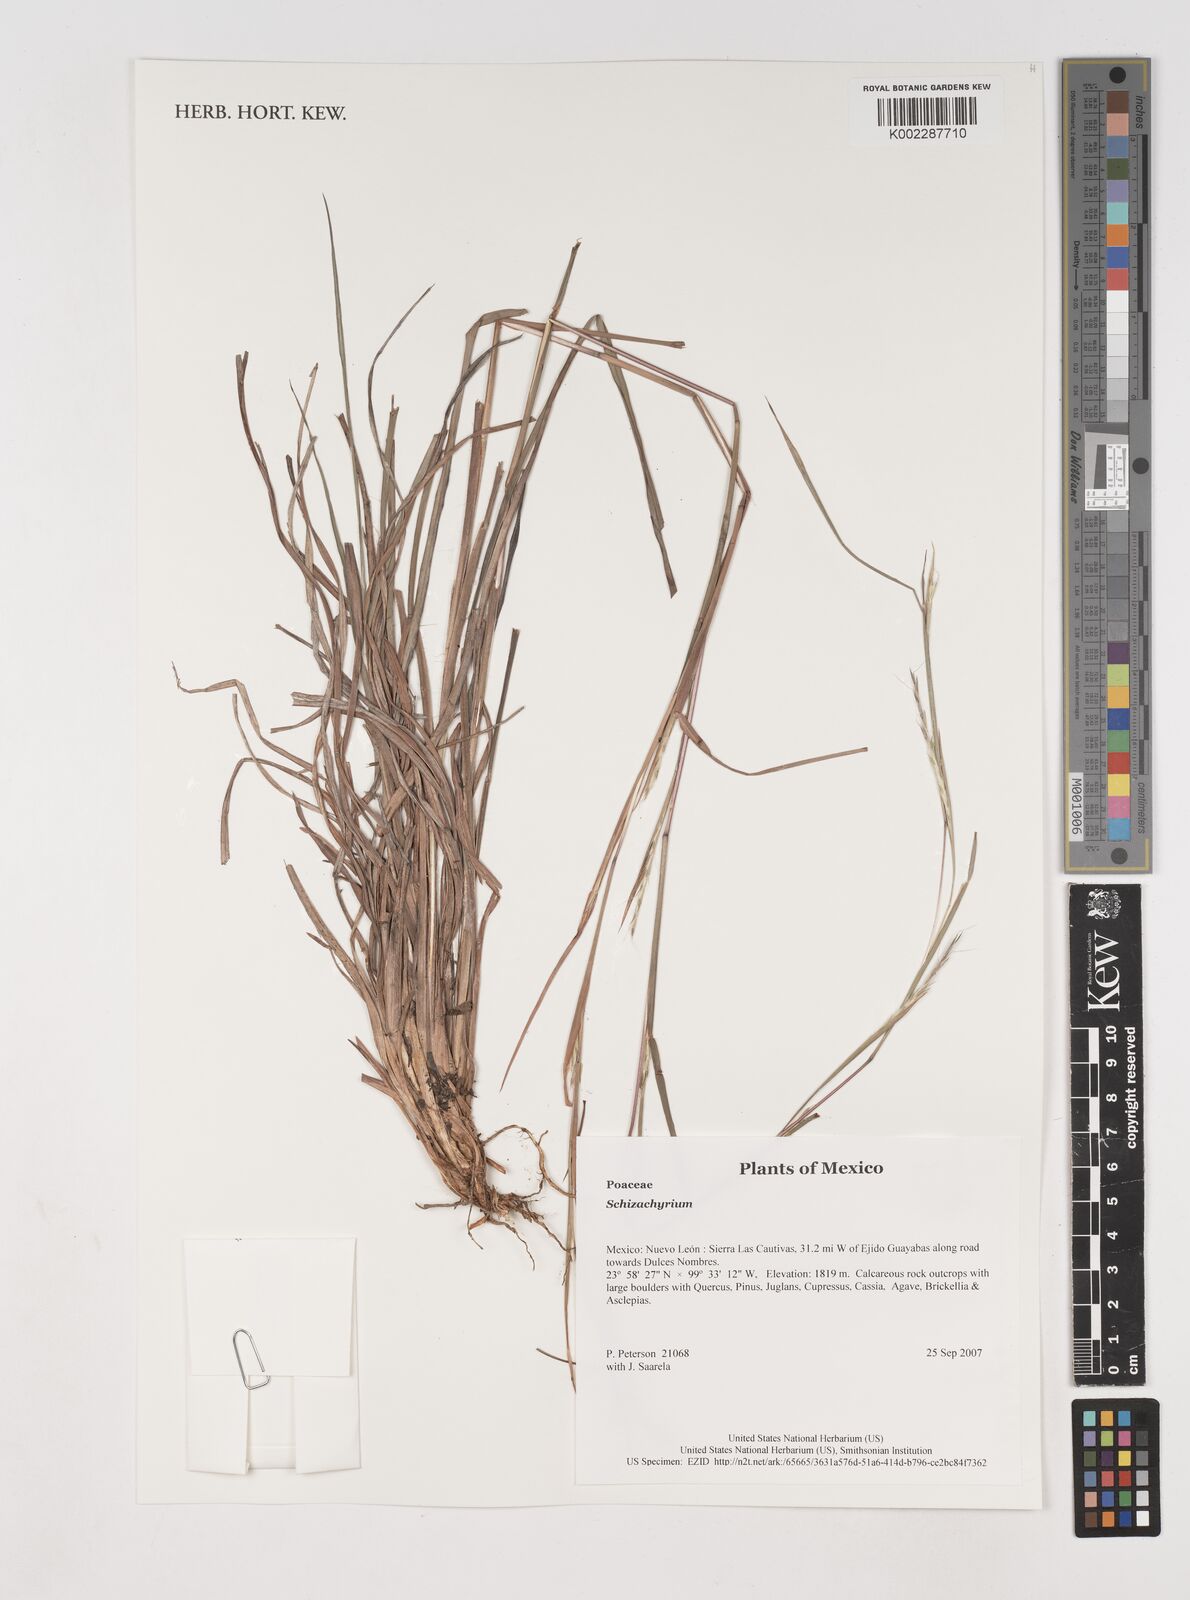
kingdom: Plantae
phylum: Tracheophyta
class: Liliopsida
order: Poales
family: Poaceae
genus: Schizachyrium
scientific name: Schizachyrium
